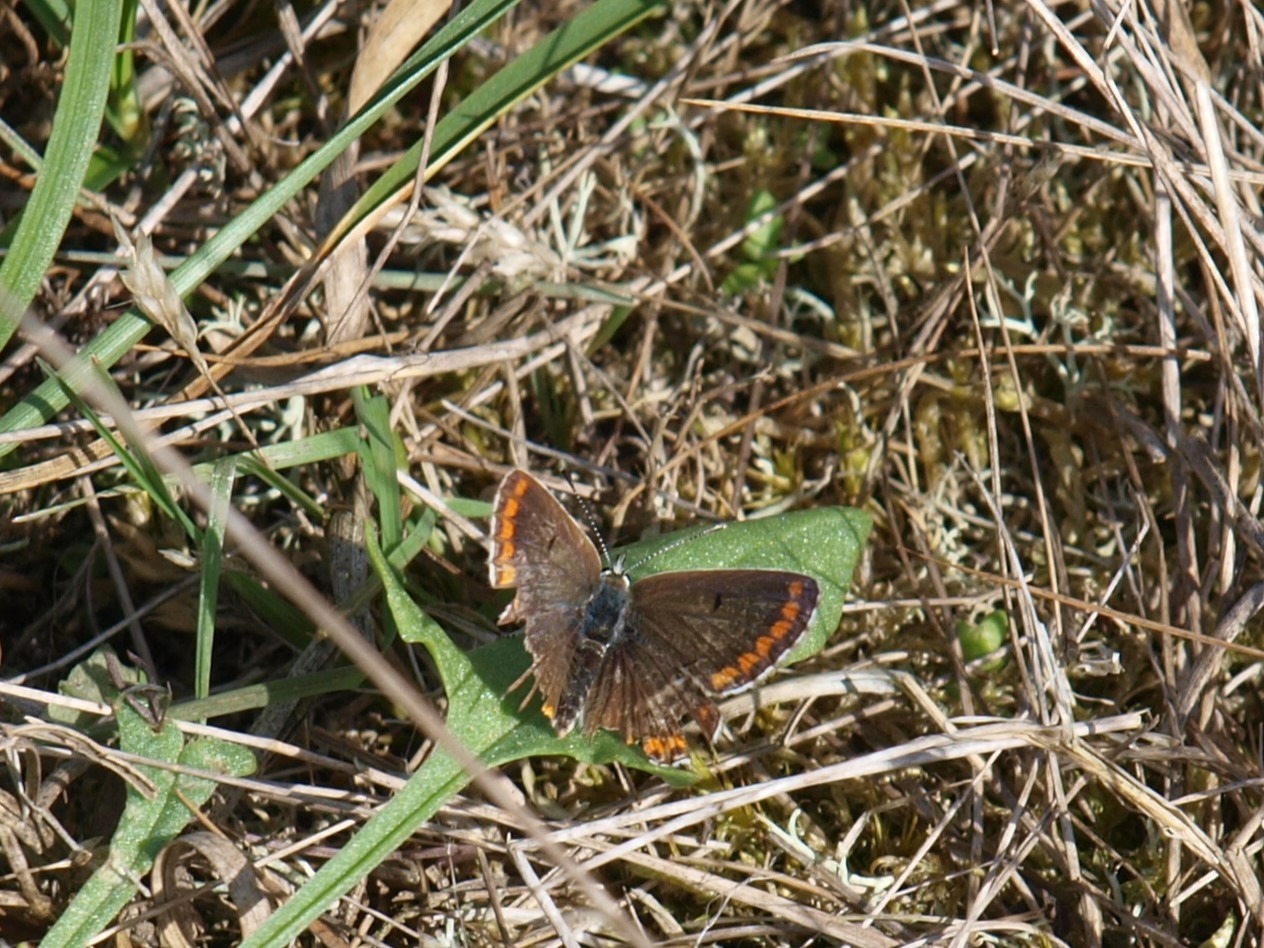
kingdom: Animalia
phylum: Arthropoda
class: Insecta
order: Lepidoptera
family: Lycaenidae
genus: Aricia
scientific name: Aricia agestis
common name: Rødplettet blåfugl
